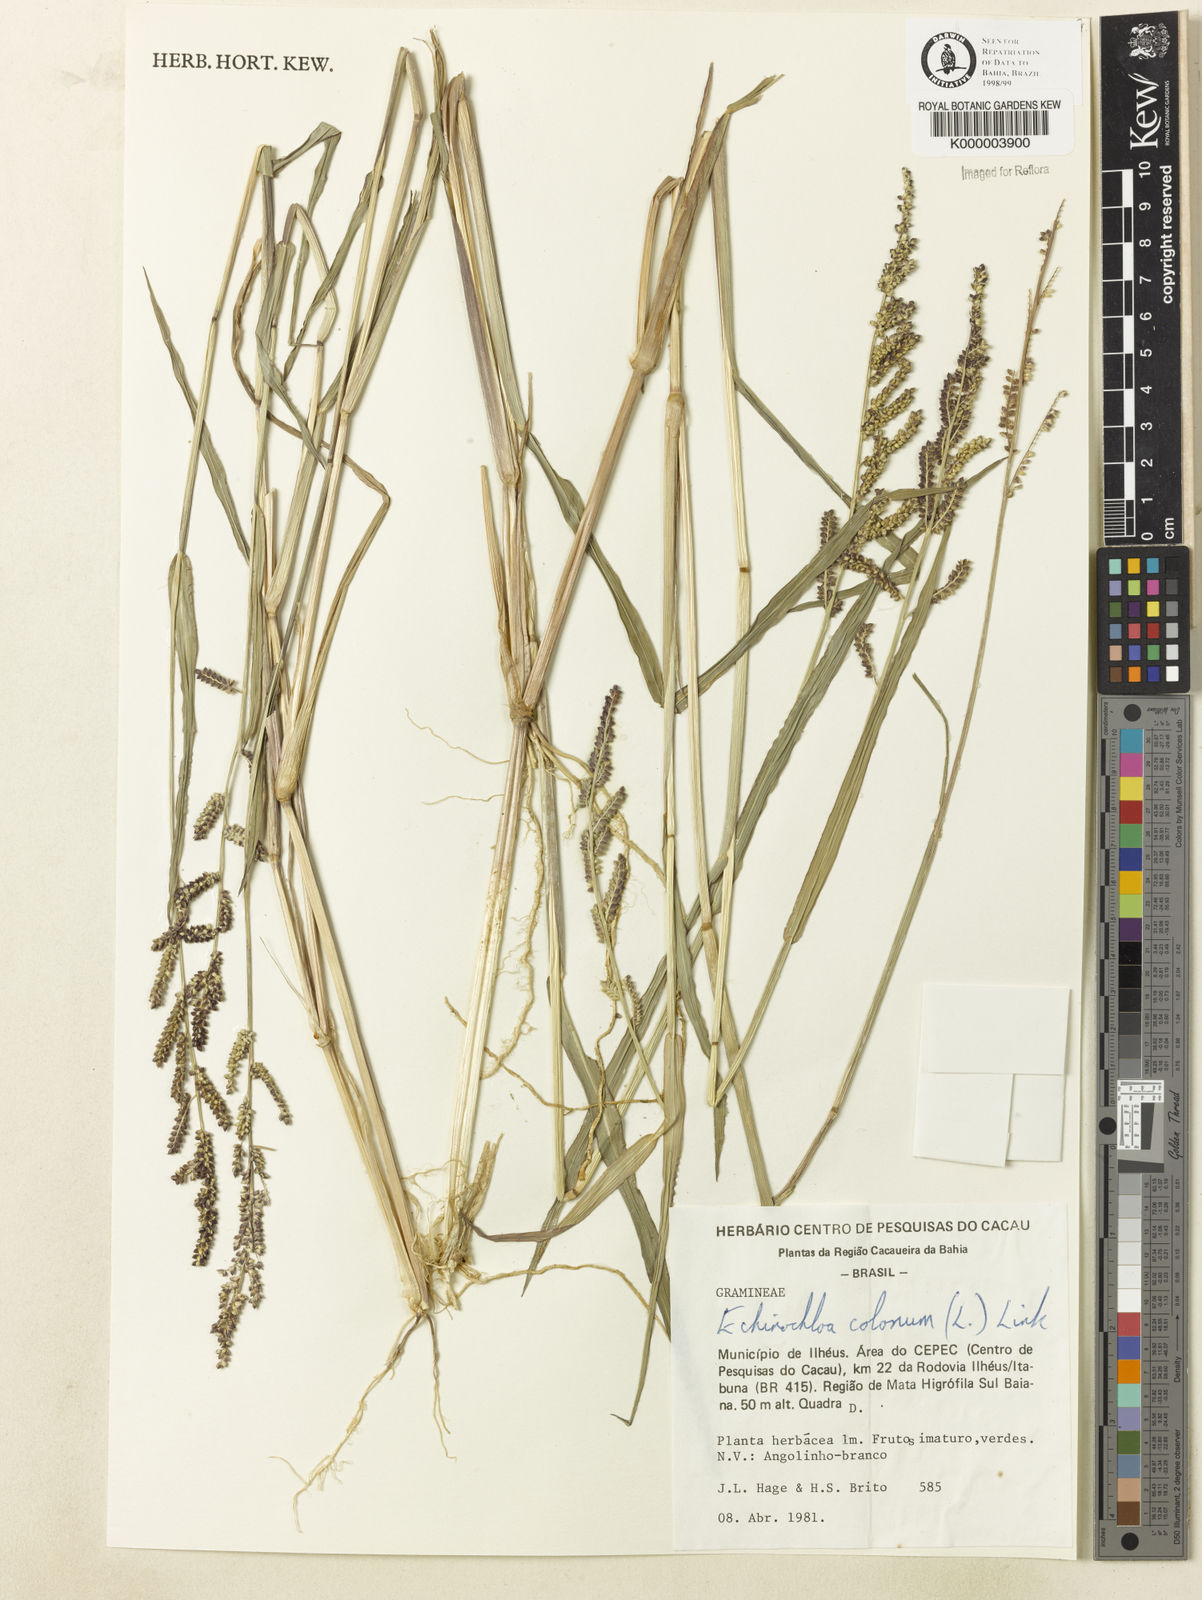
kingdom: Plantae
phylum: Tracheophyta
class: Liliopsida
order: Poales
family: Poaceae
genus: Echinochloa
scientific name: Echinochloa colonum
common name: Jungle rice
